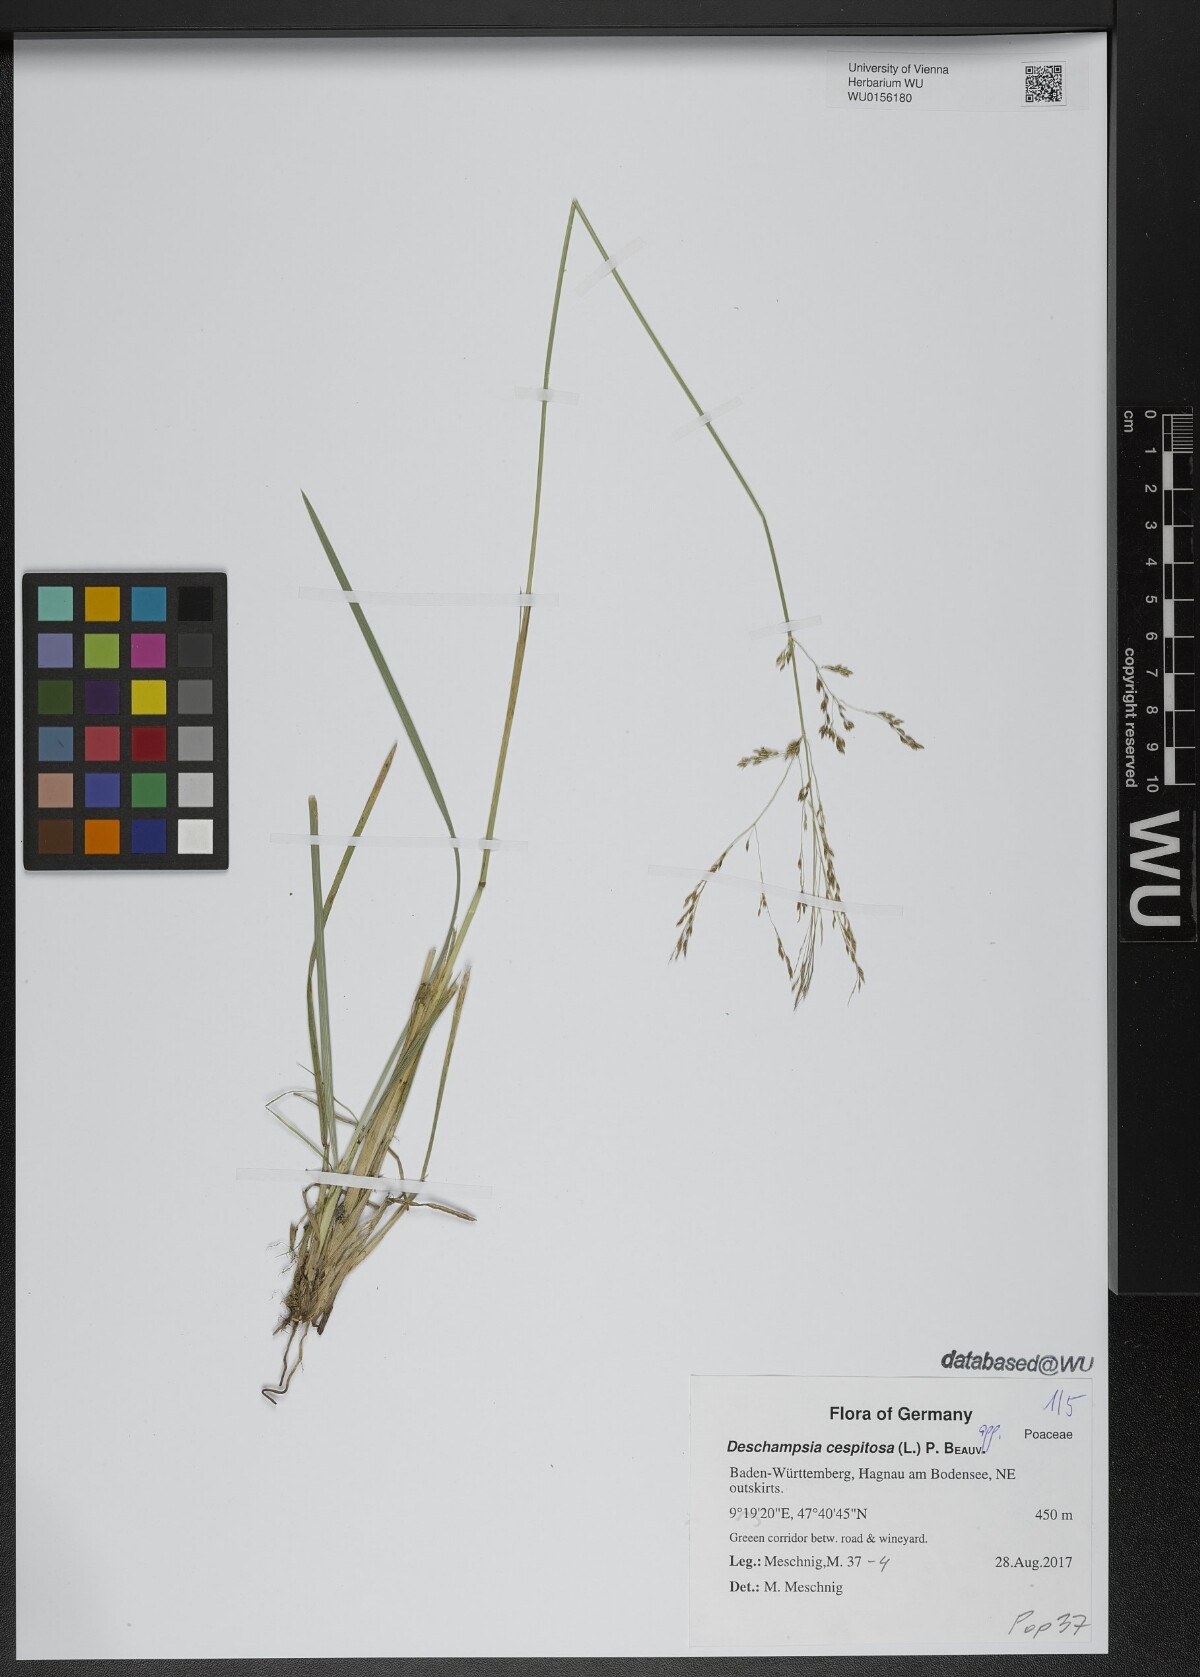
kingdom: Plantae
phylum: Tracheophyta
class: Liliopsida
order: Poales
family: Poaceae
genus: Deschampsia
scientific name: Deschampsia cespitosa
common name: Tufted hair-grass
